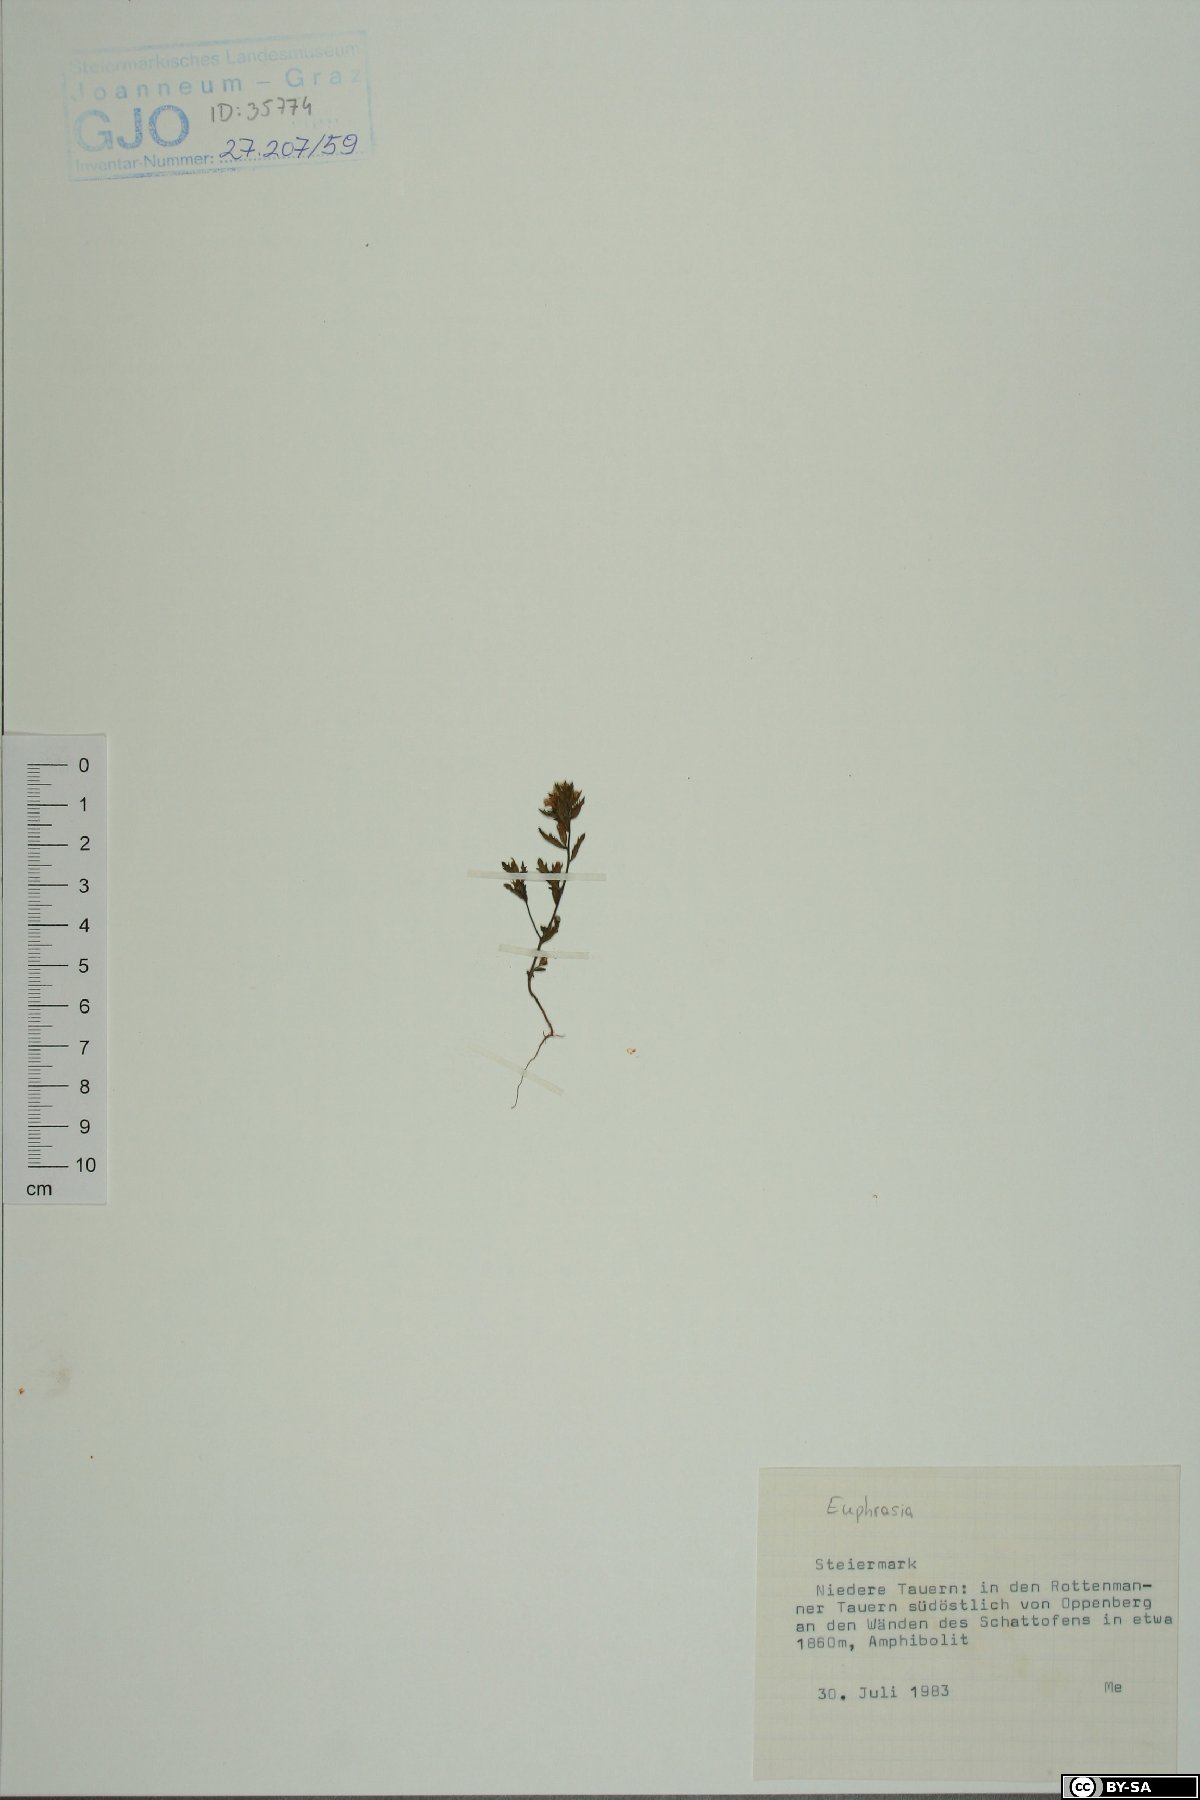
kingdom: Plantae
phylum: Tracheophyta
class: Magnoliopsida
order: Lamiales
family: Orobanchaceae
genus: Euphrasia
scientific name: Euphrasia
